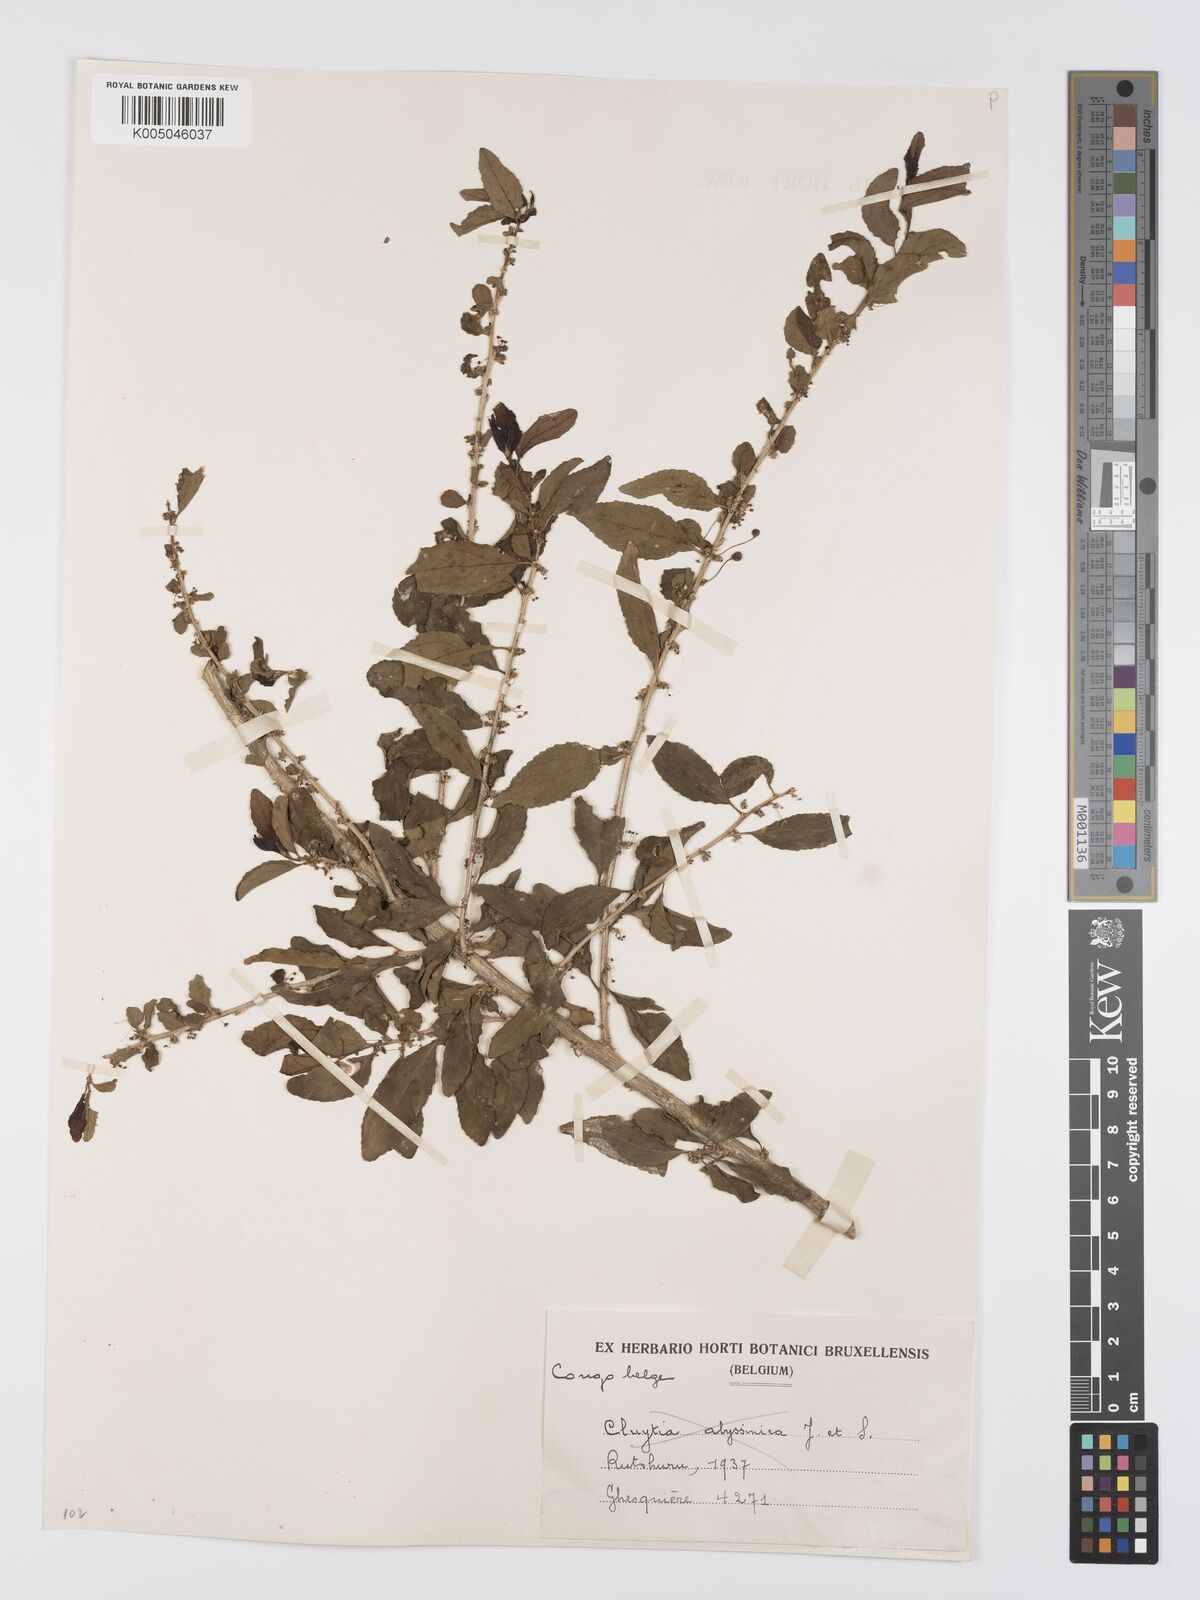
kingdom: Plantae
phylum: Tracheophyta
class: Magnoliopsida
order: Malpighiales
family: Euphorbiaceae
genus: Erythrococca
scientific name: Erythrococca
